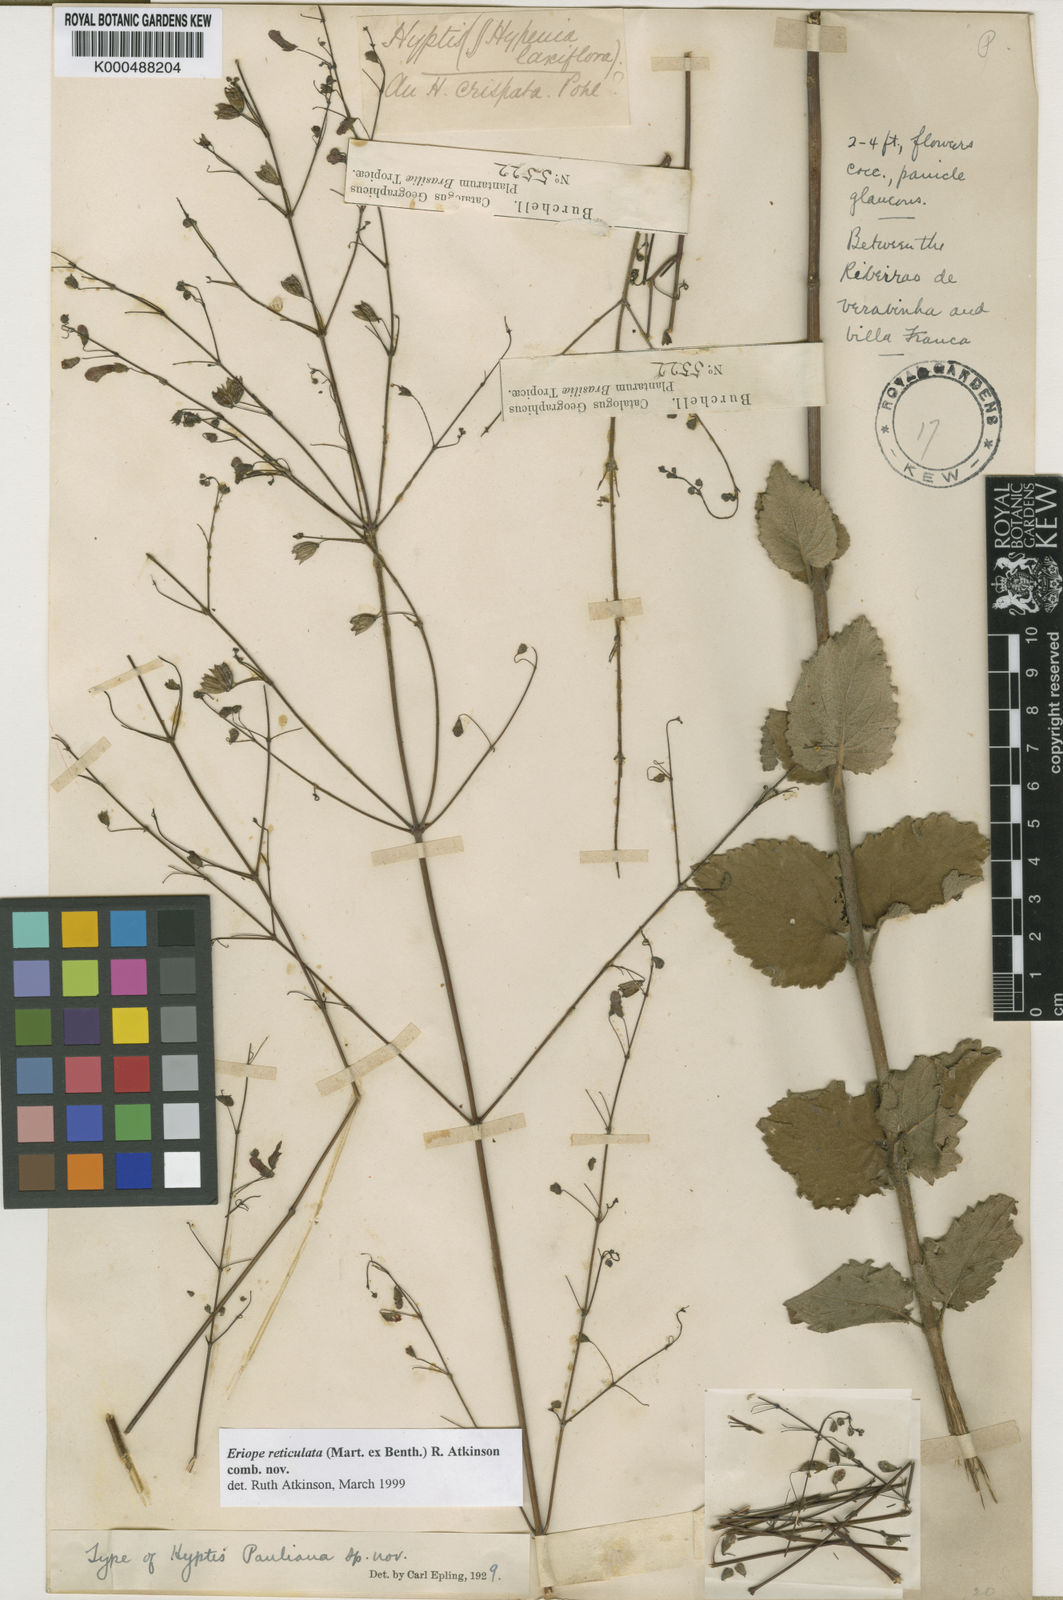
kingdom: Plantae
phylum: Tracheophyta
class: Magnoliopsida
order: Lamiales
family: Lamiaceae
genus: Hypenia
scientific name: Hypenia reticulata
